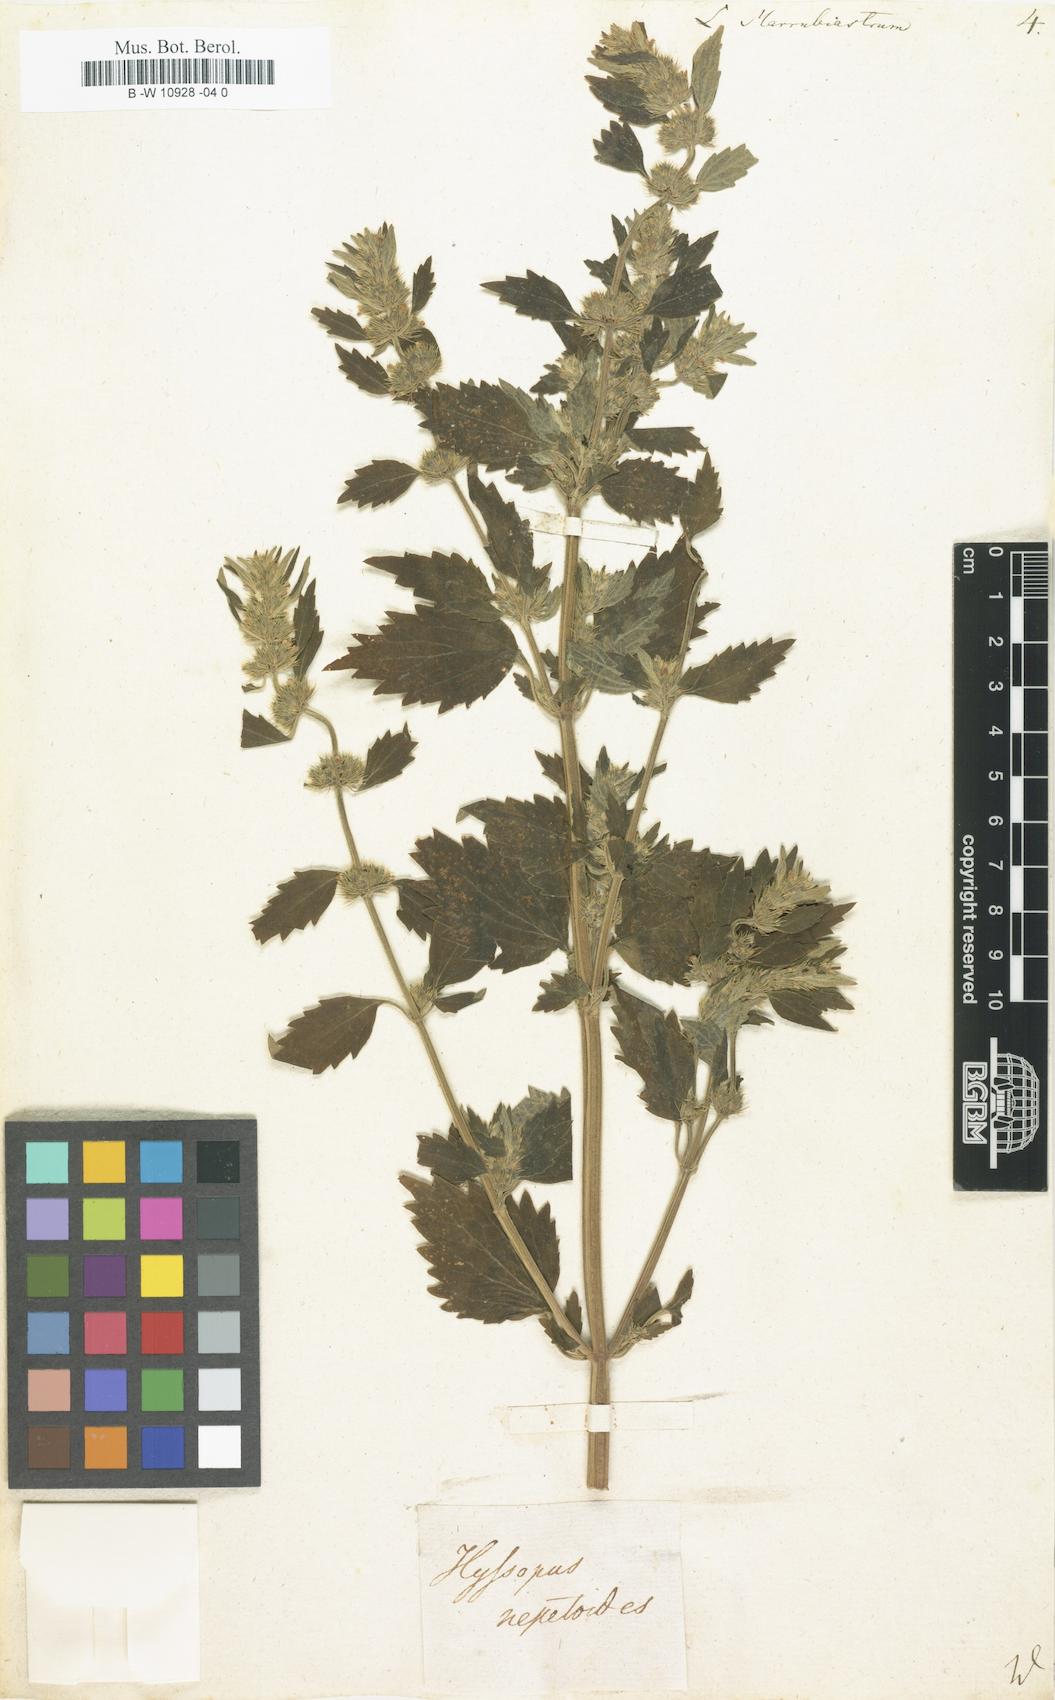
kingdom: Plantae
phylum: Tracheophyta
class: Magnoliopsida
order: Lamiales
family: Lamiaceae
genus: Leonurus
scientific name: Leonurus marrubiastrum
